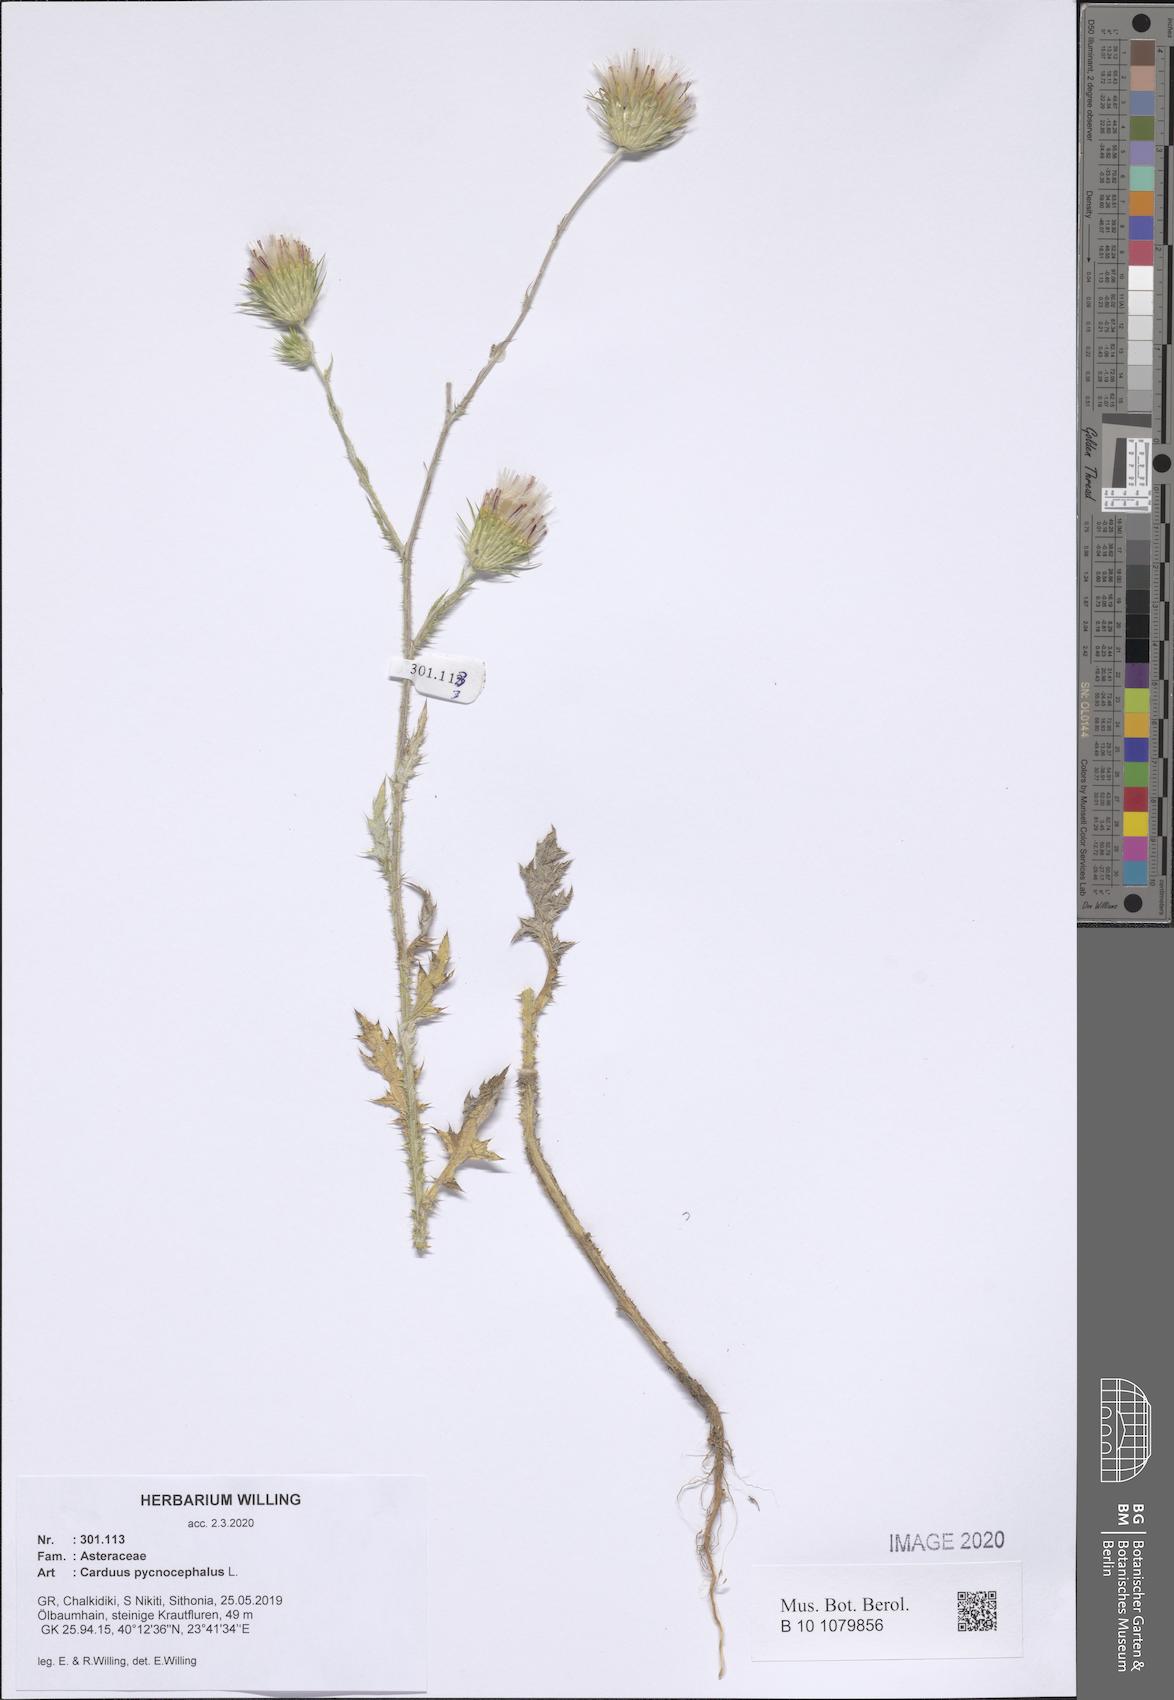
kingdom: Plantae
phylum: Tracheophyta
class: Magnoliopsida
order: Asterales
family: Asteraceae
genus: Carduus
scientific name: Carduus pycnocephalus
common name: Plymouth thistle
